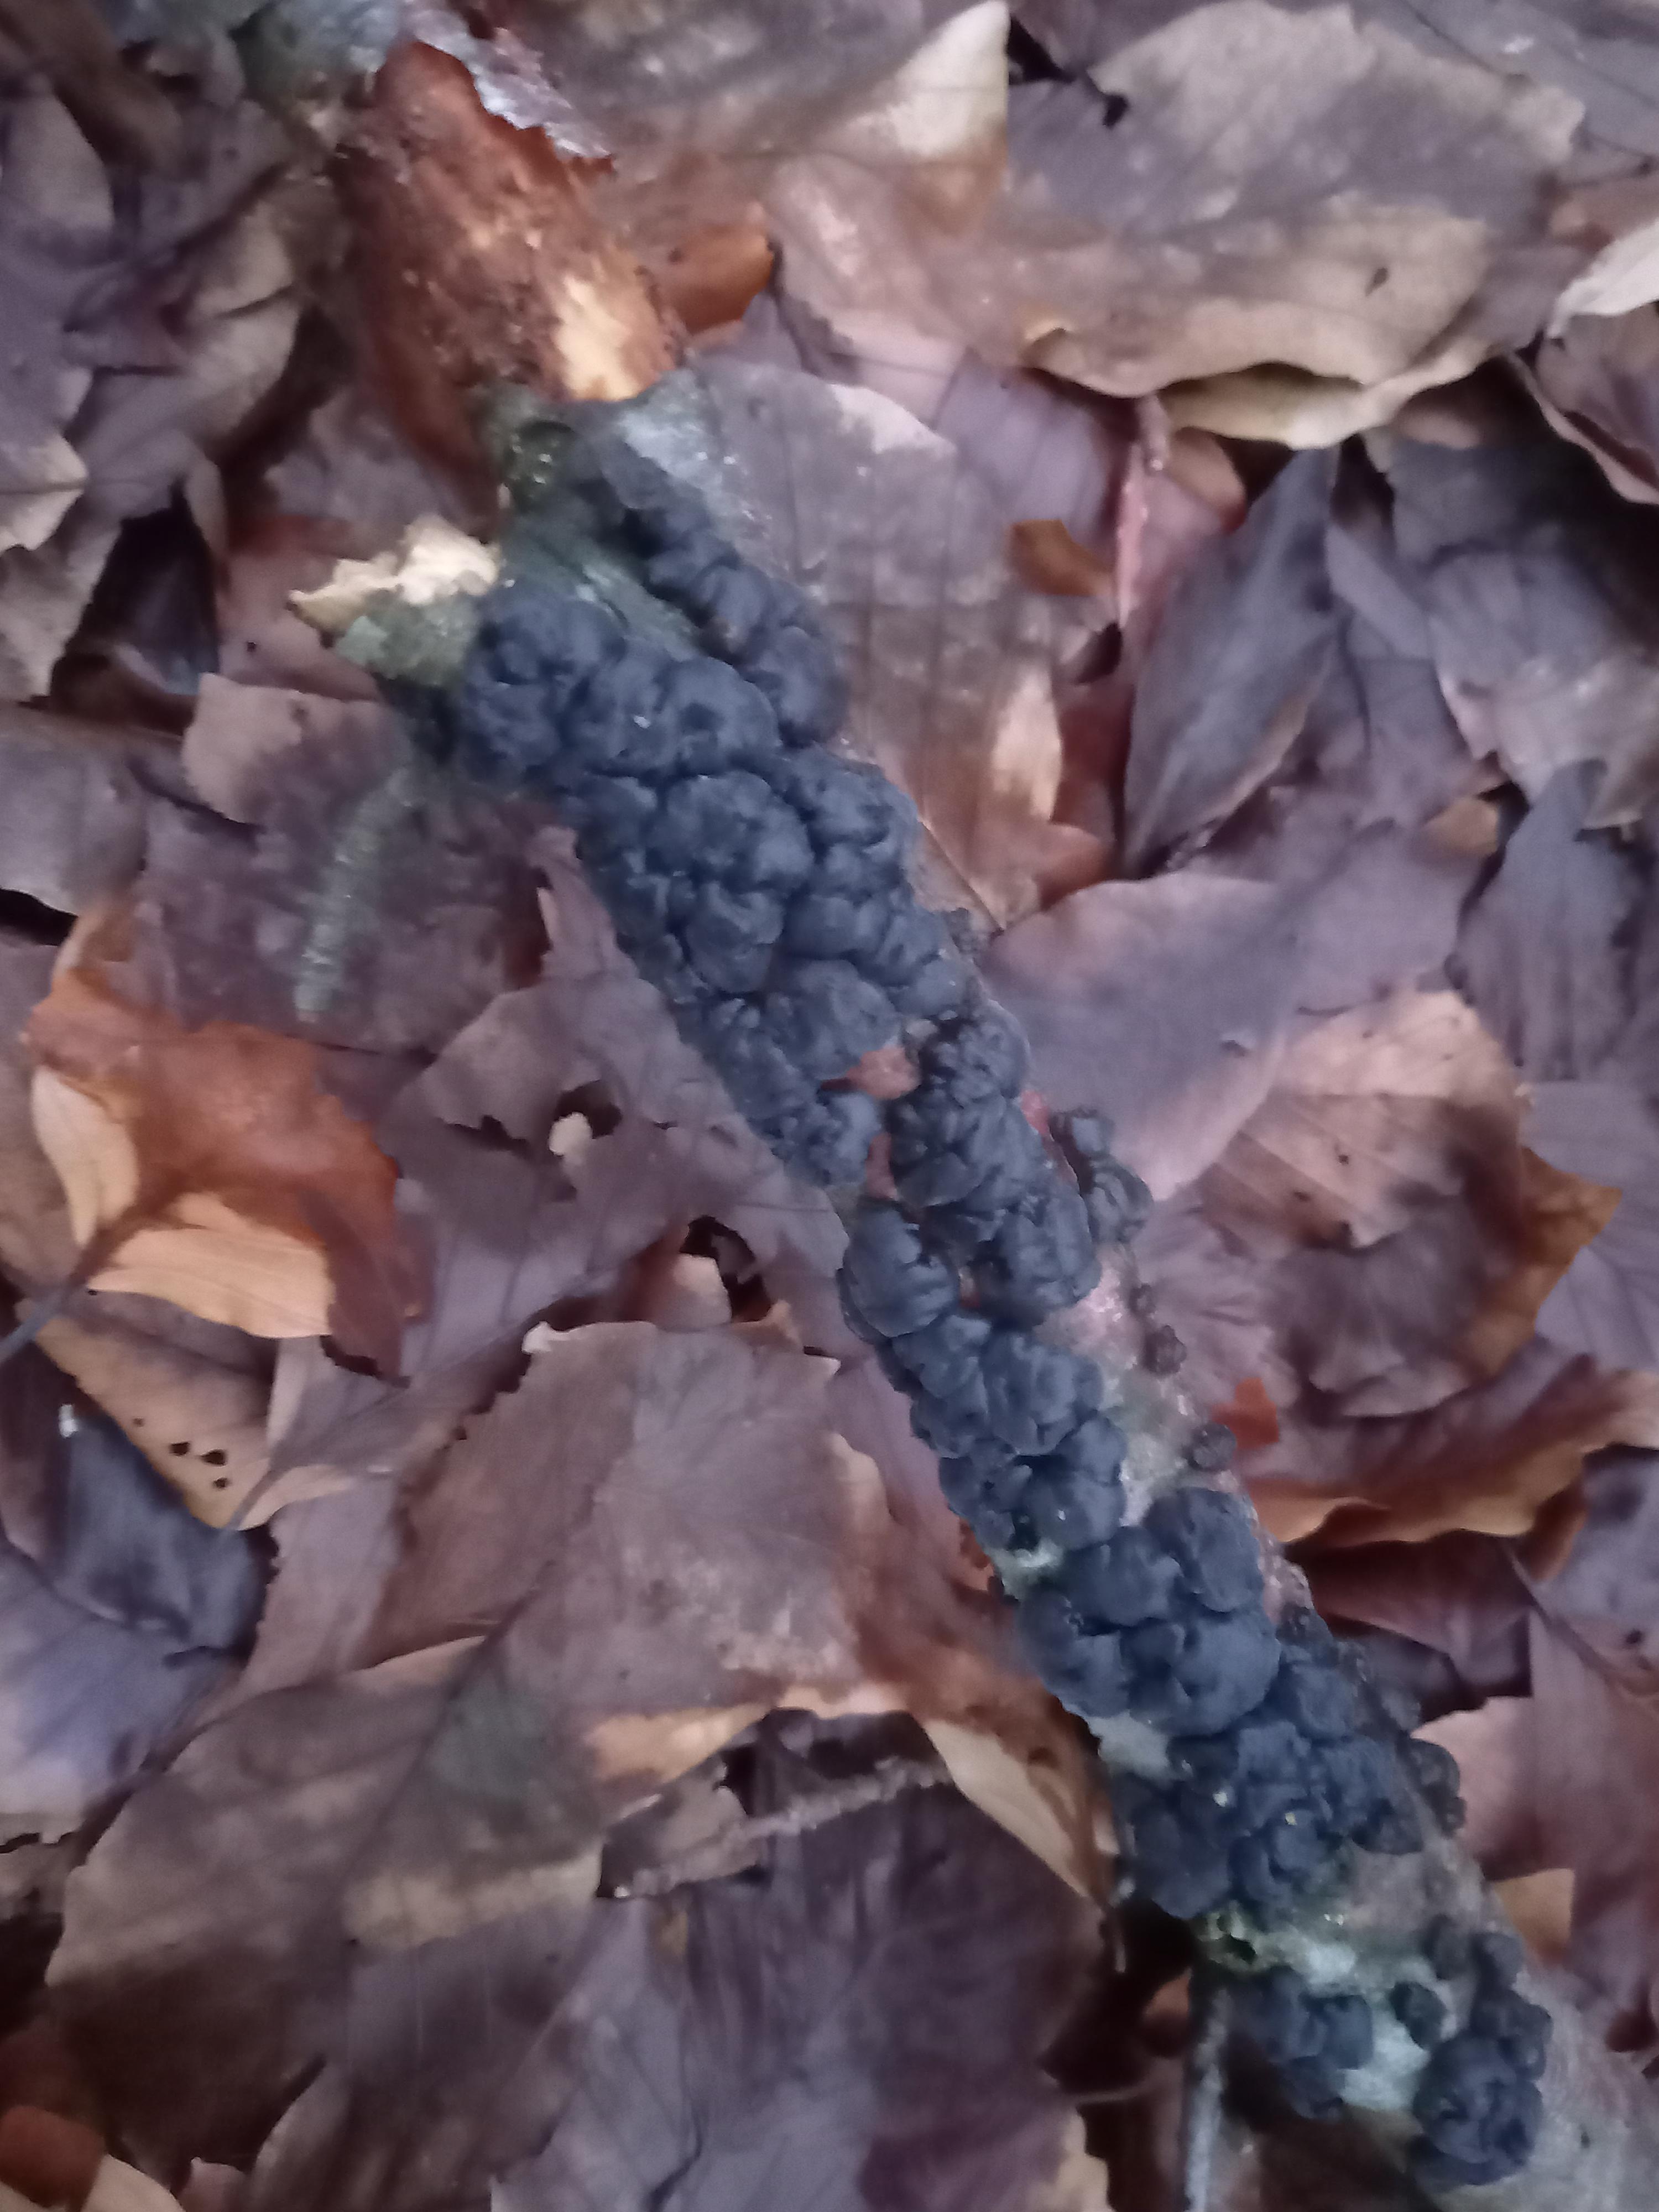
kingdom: Fungi
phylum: Basidiomycota
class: Agaricomycetes
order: Auriculariales
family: Auriculariaceae
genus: Exidia
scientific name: Exidia nigricans
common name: almindelig bævretop
